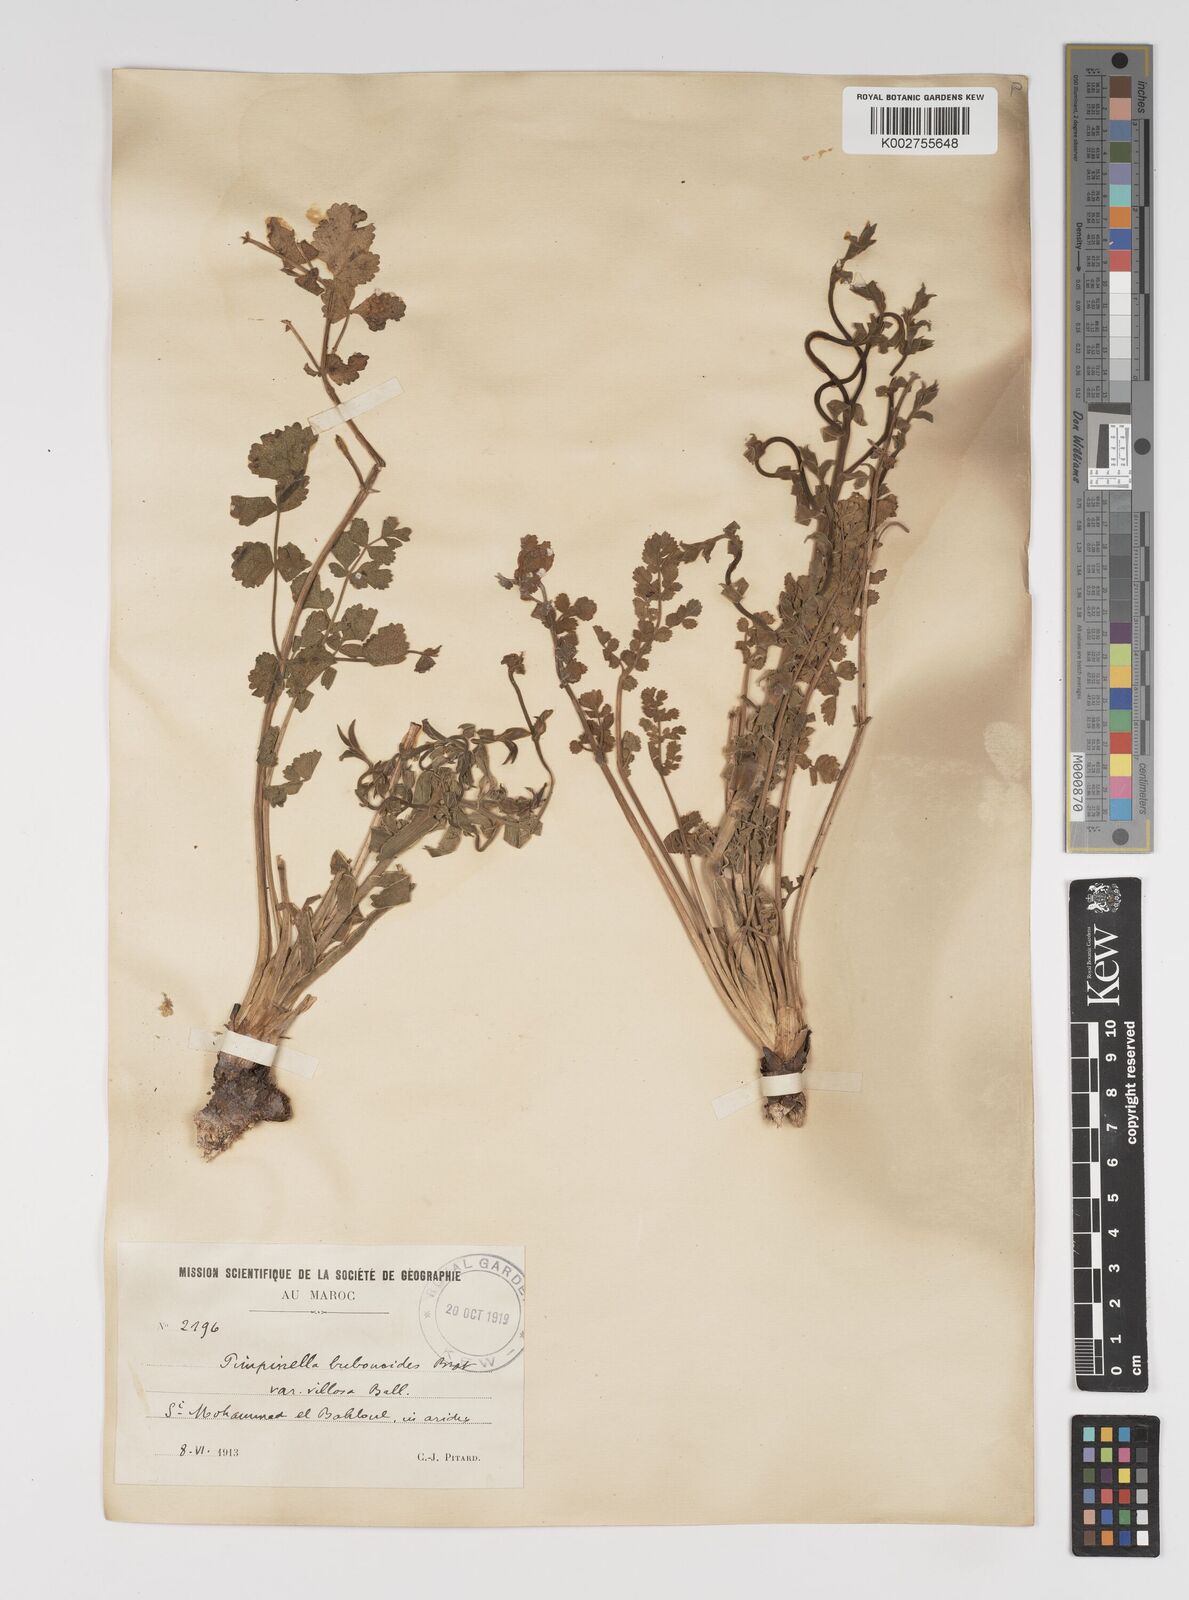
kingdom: Plantae
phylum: Tracheophyta
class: Magnoliopsida
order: Apiales
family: Apiaceae
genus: Pimpinella
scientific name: Pimpinella villosa
